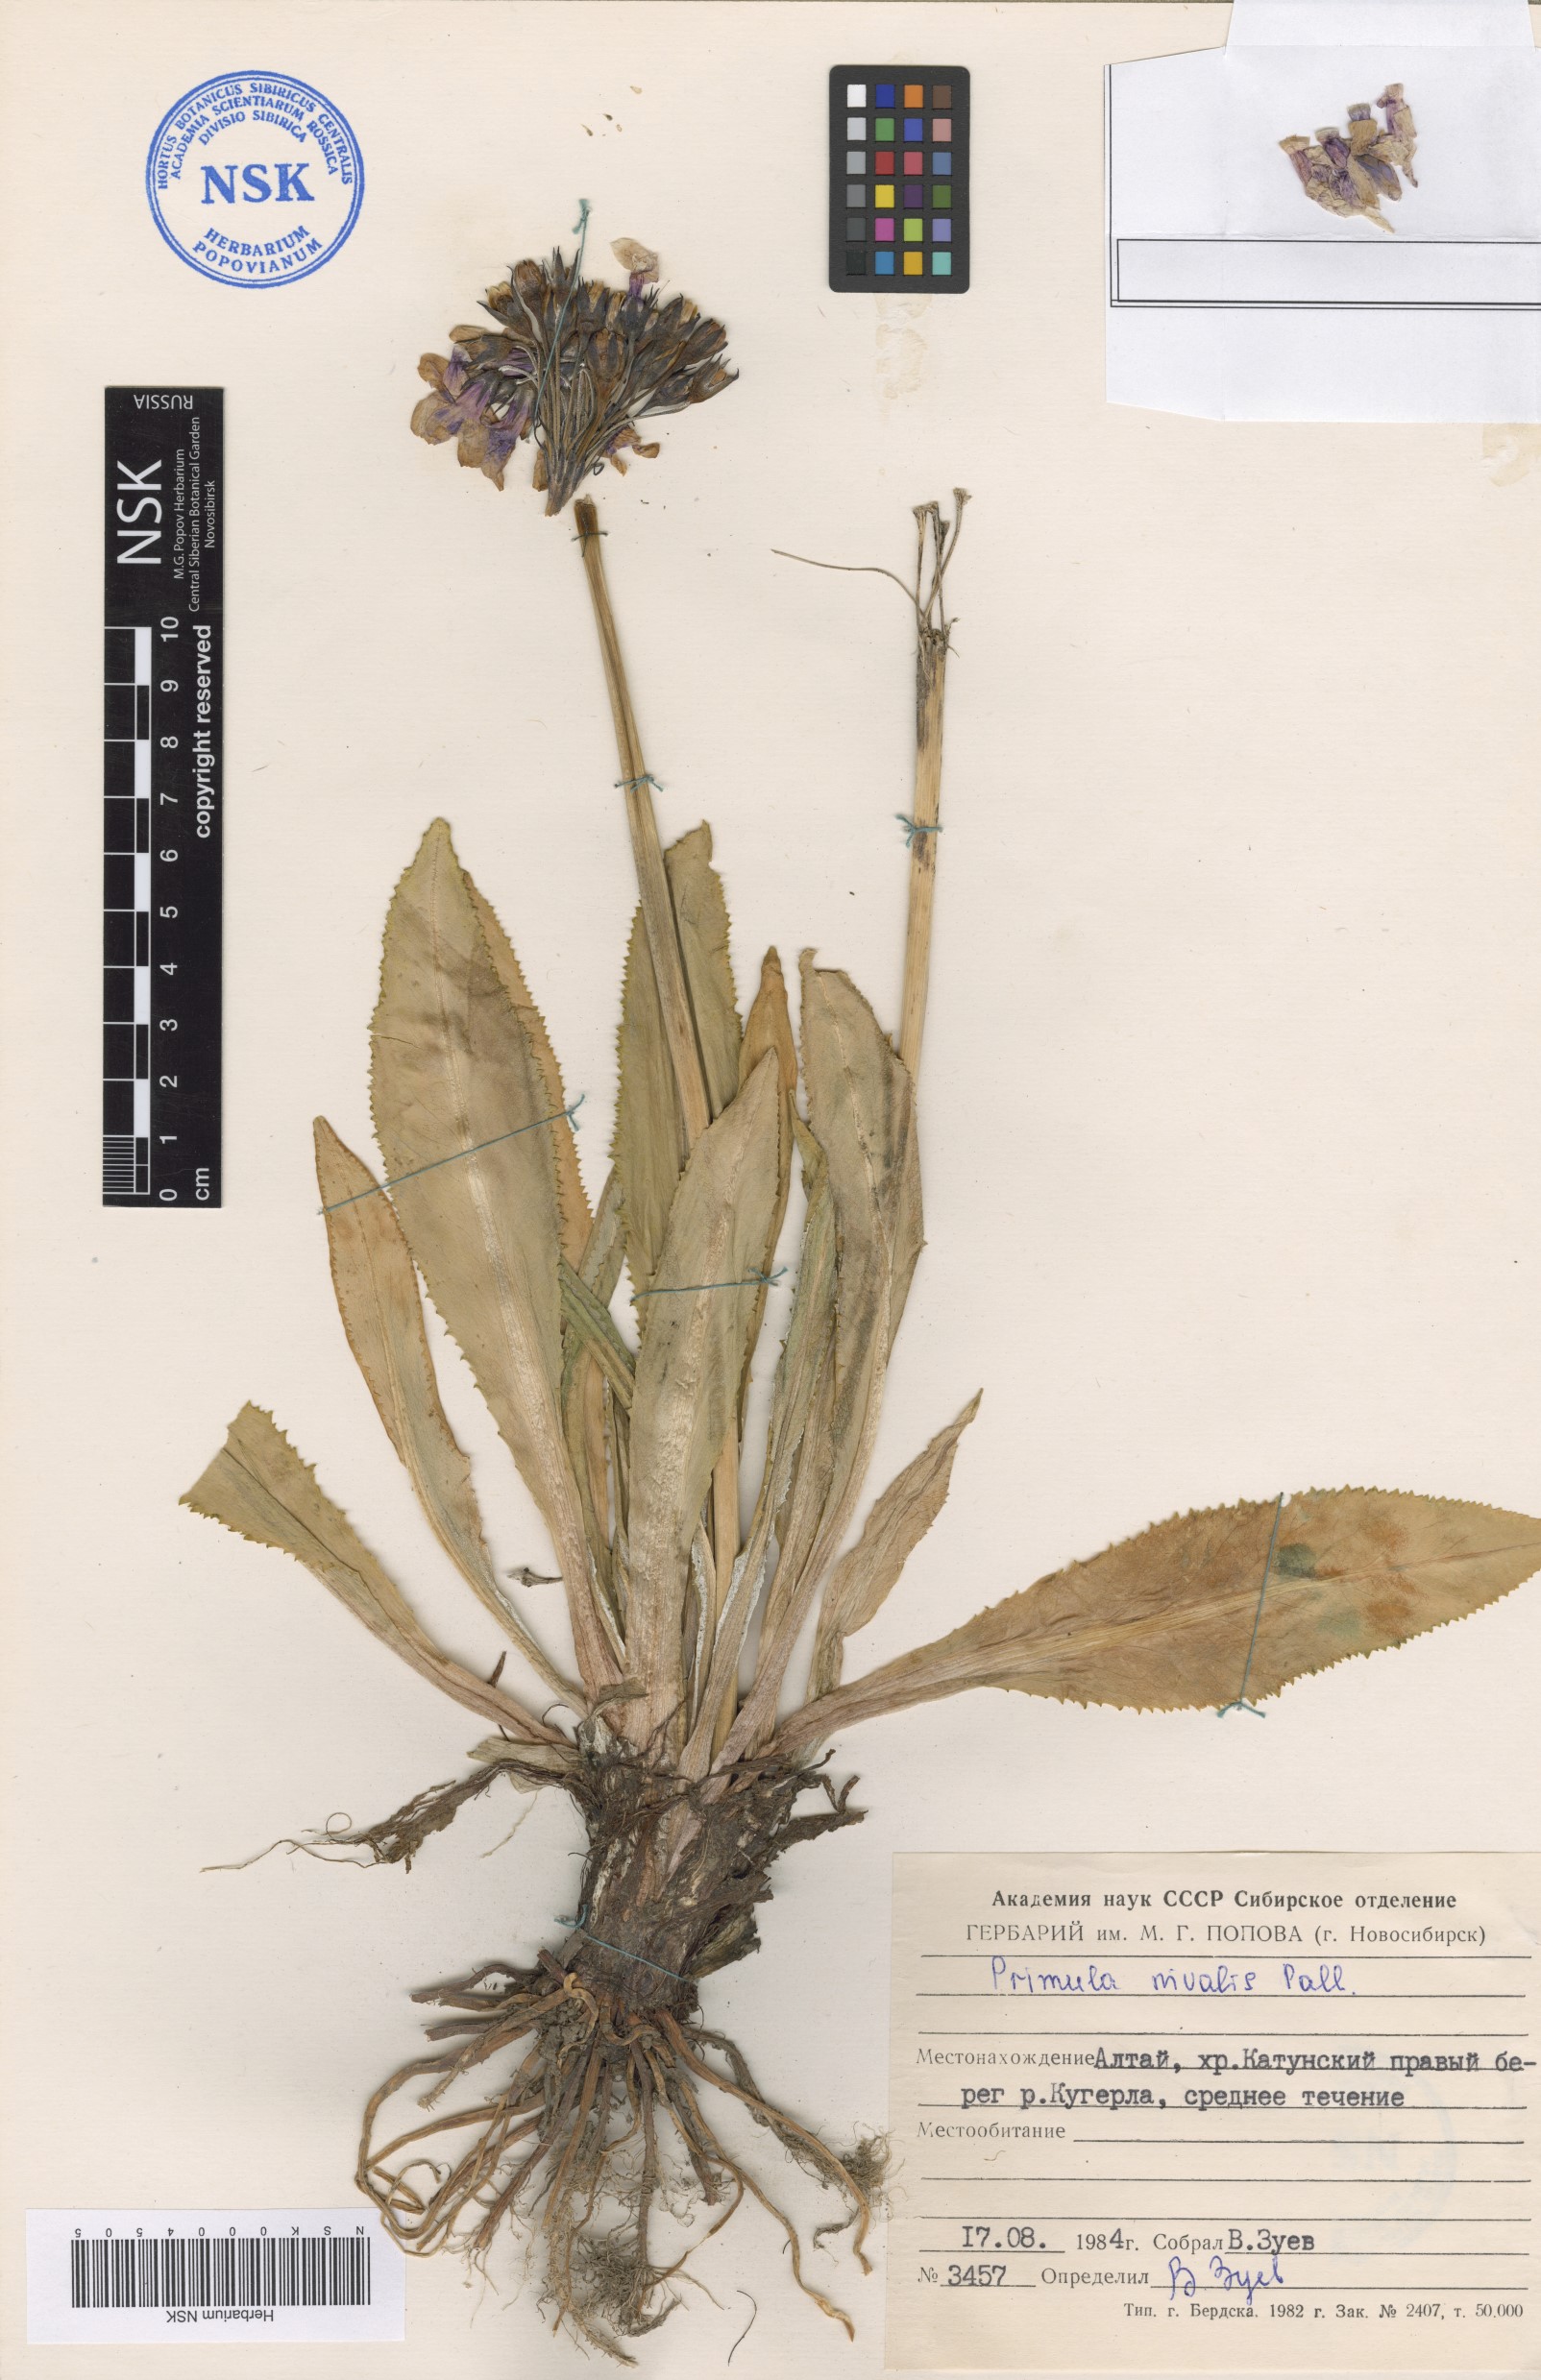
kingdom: Plantae
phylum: Tracheophyta
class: Magnoliopsida
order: Ericales
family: Primulaceae
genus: Primula
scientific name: Primula nivalis
